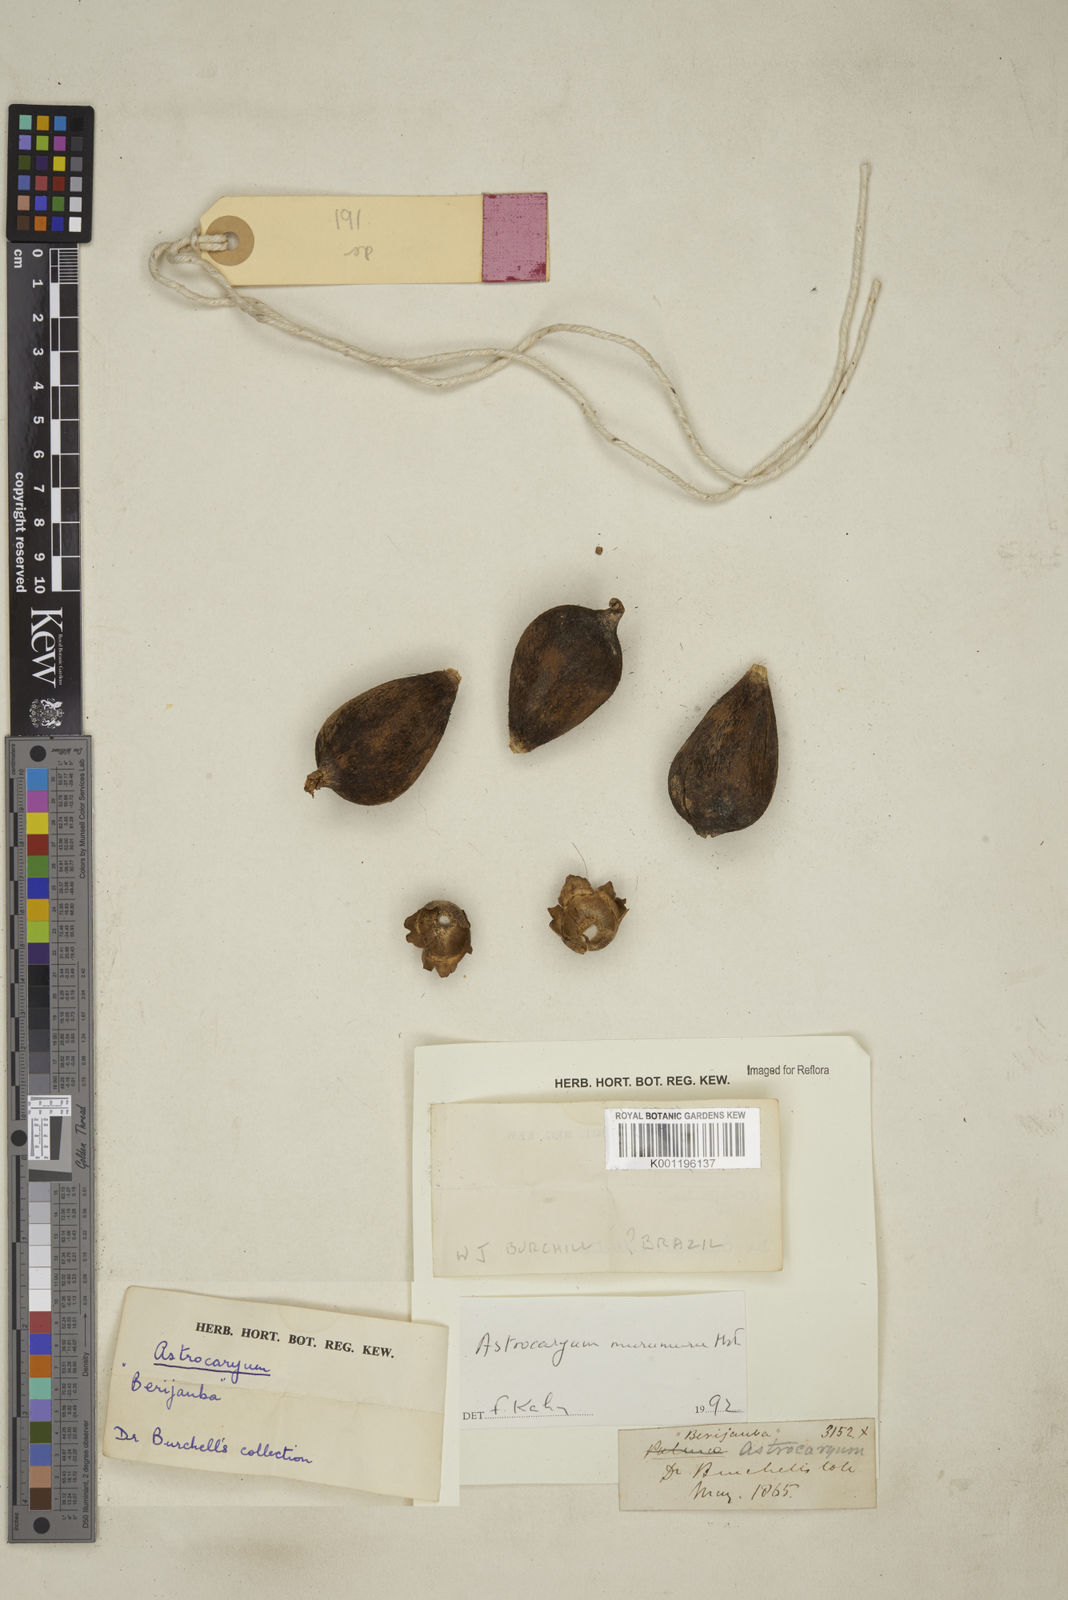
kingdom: Plantae
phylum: Tracheophyta
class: Liliopsida
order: Arecales
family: Arecaceae
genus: Astrocaryum
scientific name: Astrocaryum murumuru
